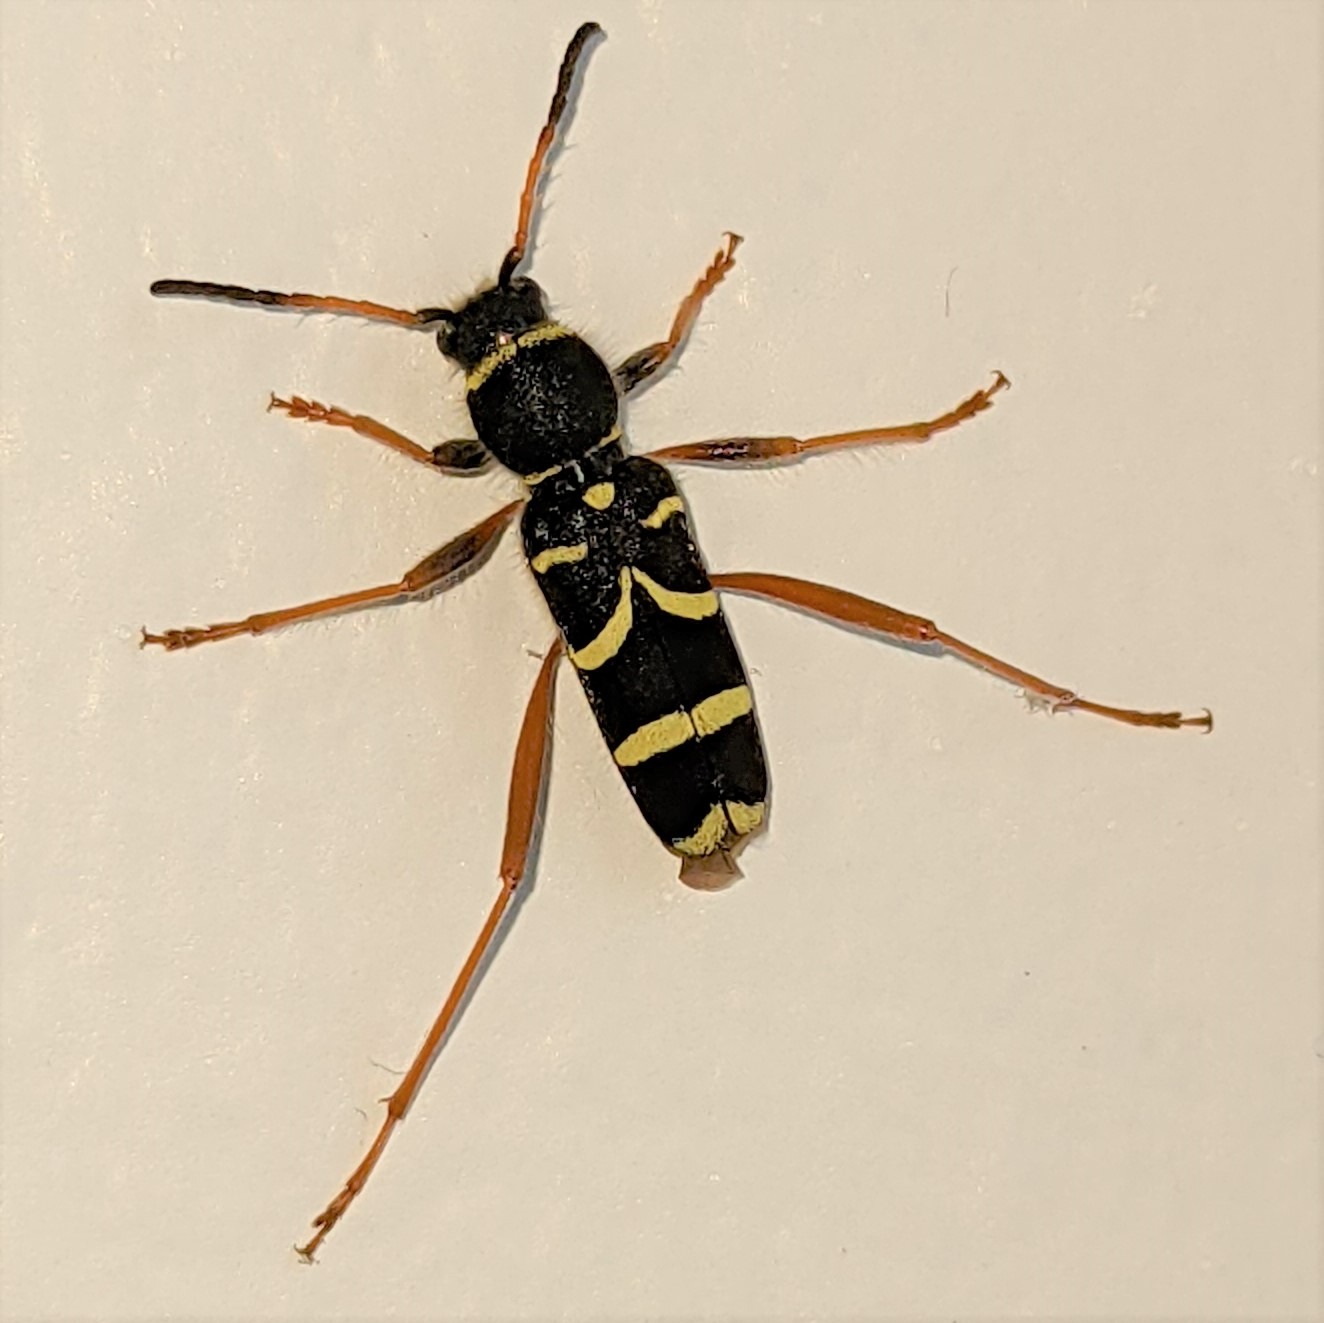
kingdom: Animalia
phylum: Arthropoda
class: Insecta
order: Coleoptera
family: Cerambycidae
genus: Clytus
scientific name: Clytus arietis
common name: Lille hvepsebuk
